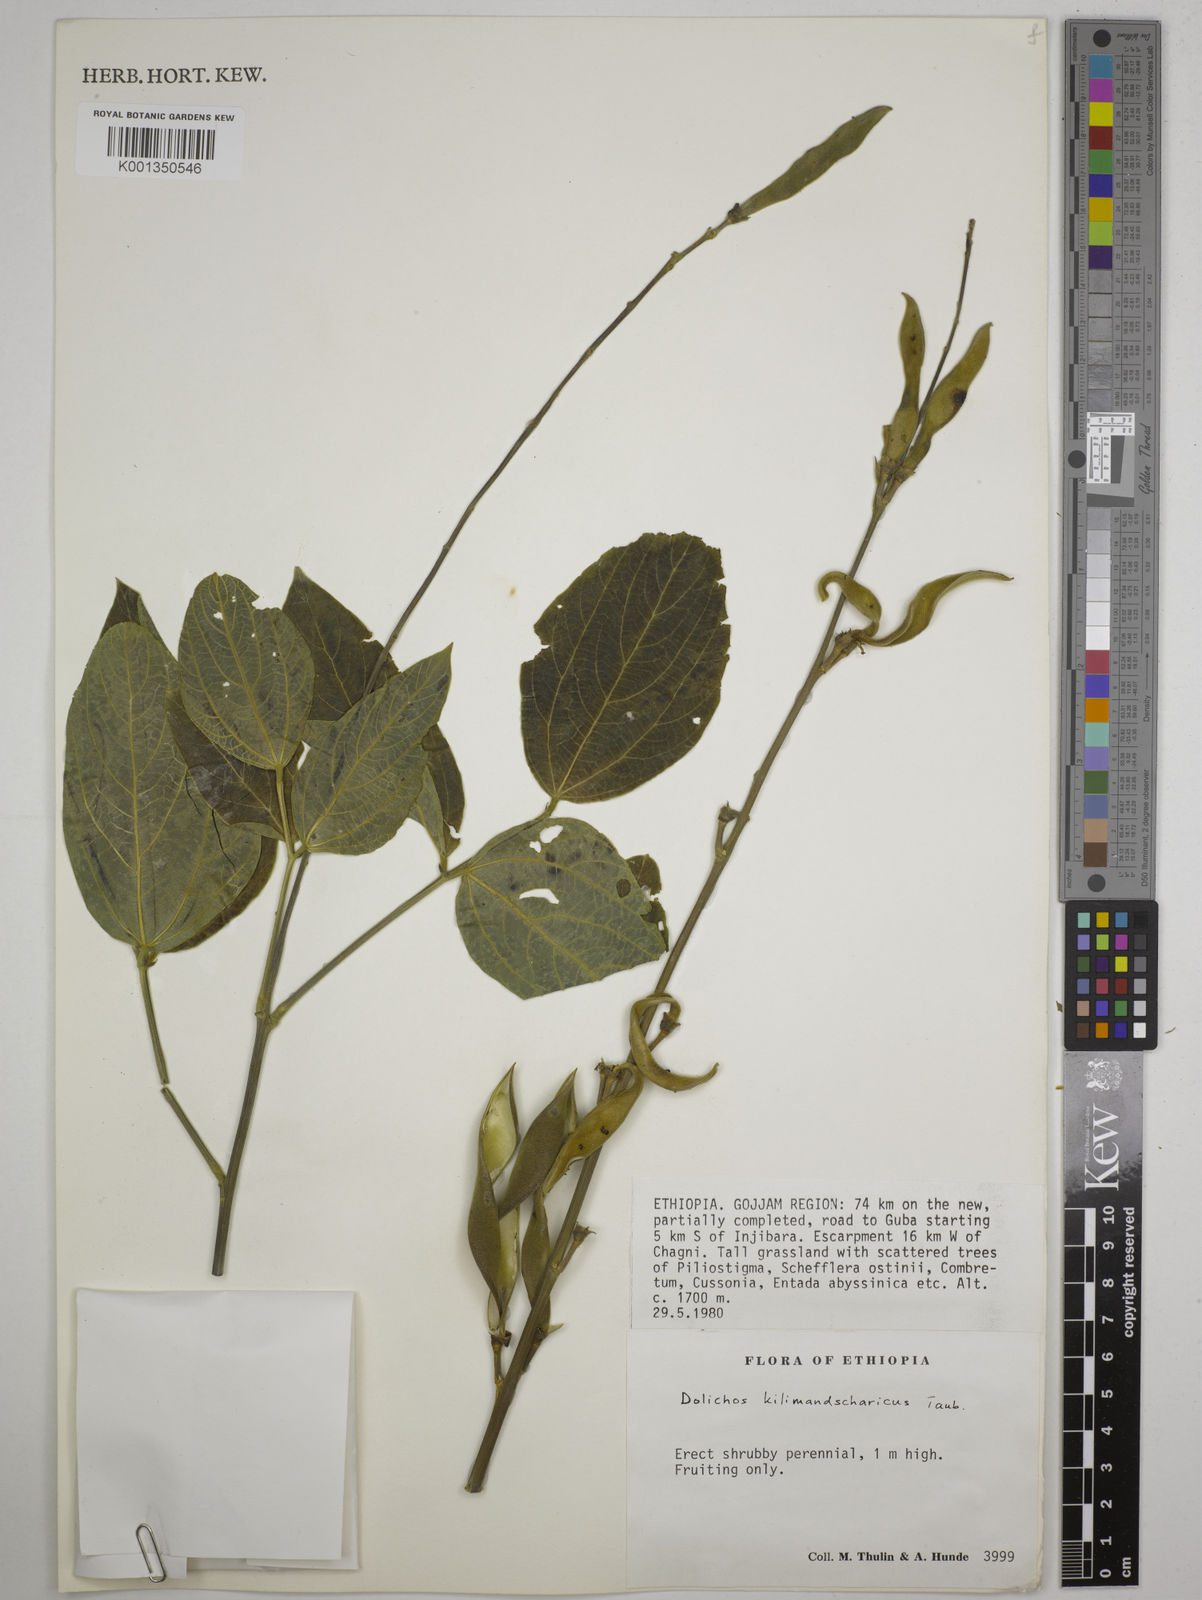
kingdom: Plantae
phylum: Tracheophyta
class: Magnoliopsida
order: Fabales
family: Fabaceae
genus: Dolichos
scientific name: Dolichos kilimandscharicus
